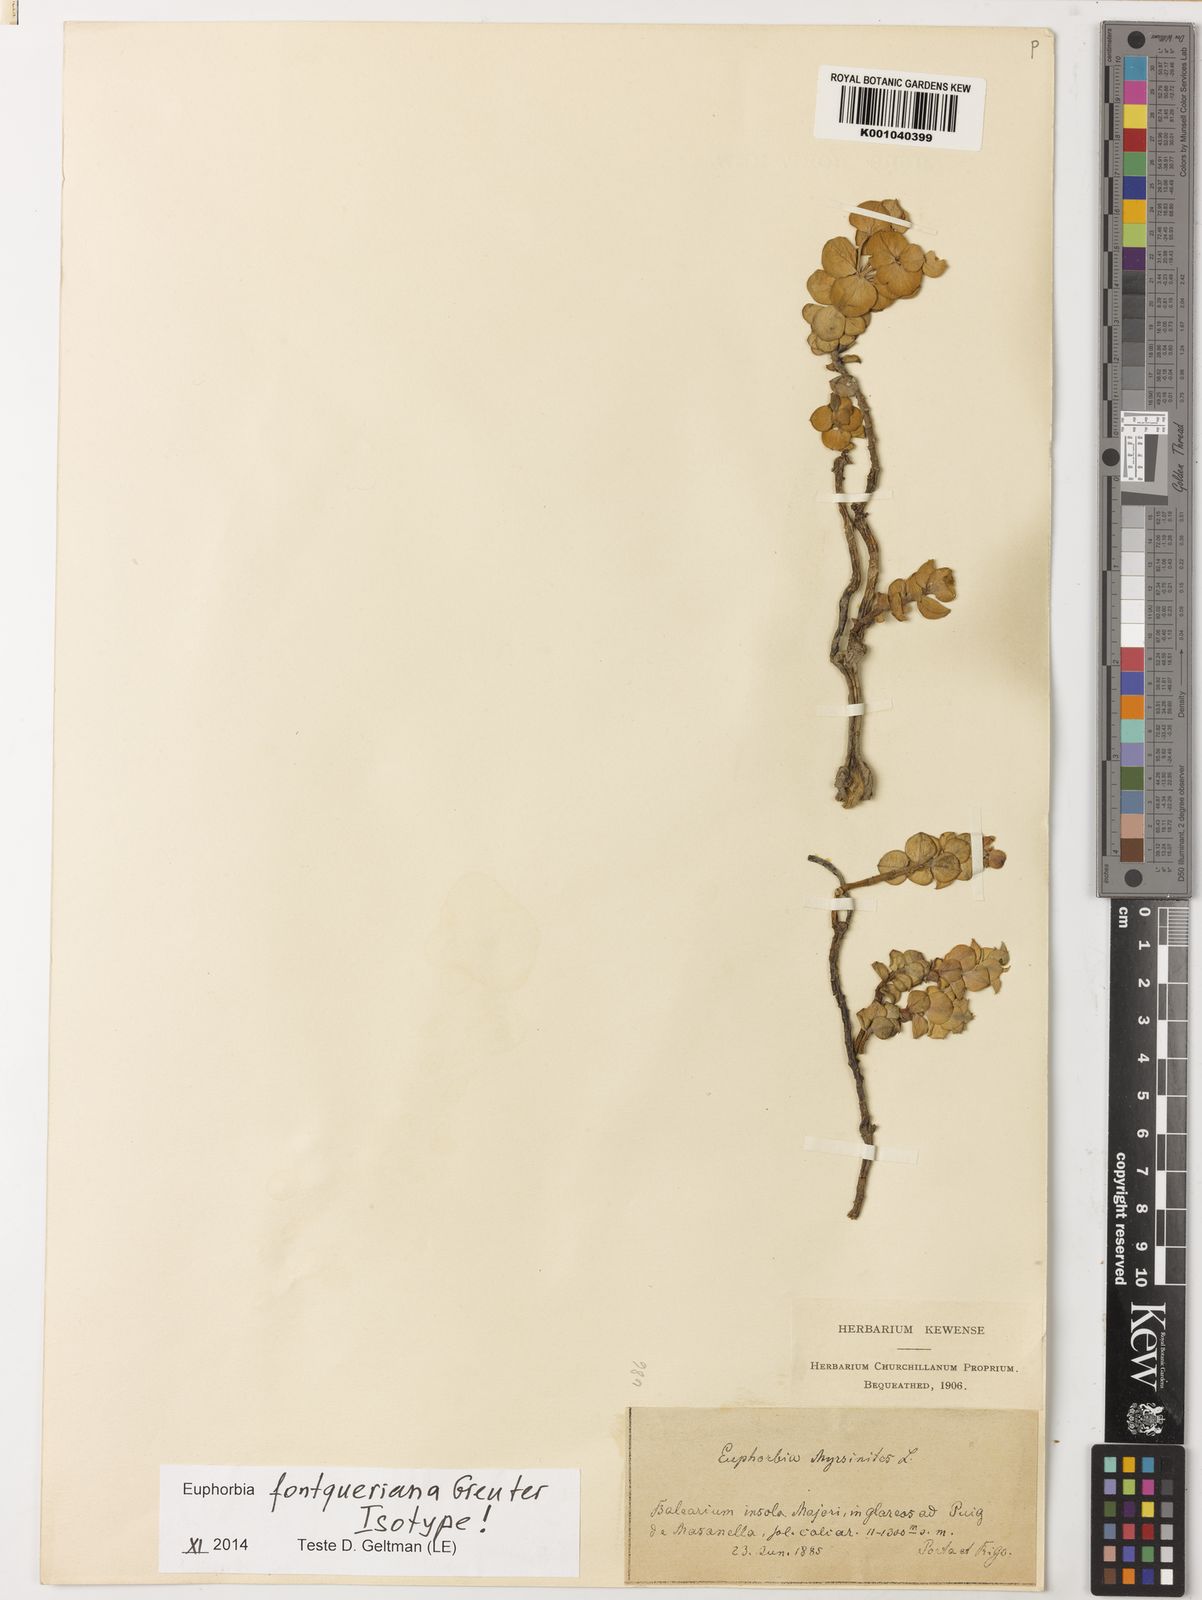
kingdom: Plantae
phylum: Tracheophyta
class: Magnoliopsida
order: Malpighiales
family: Euphorbiaceae
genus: Euphorbia
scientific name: Euphorbia fontqueriana
